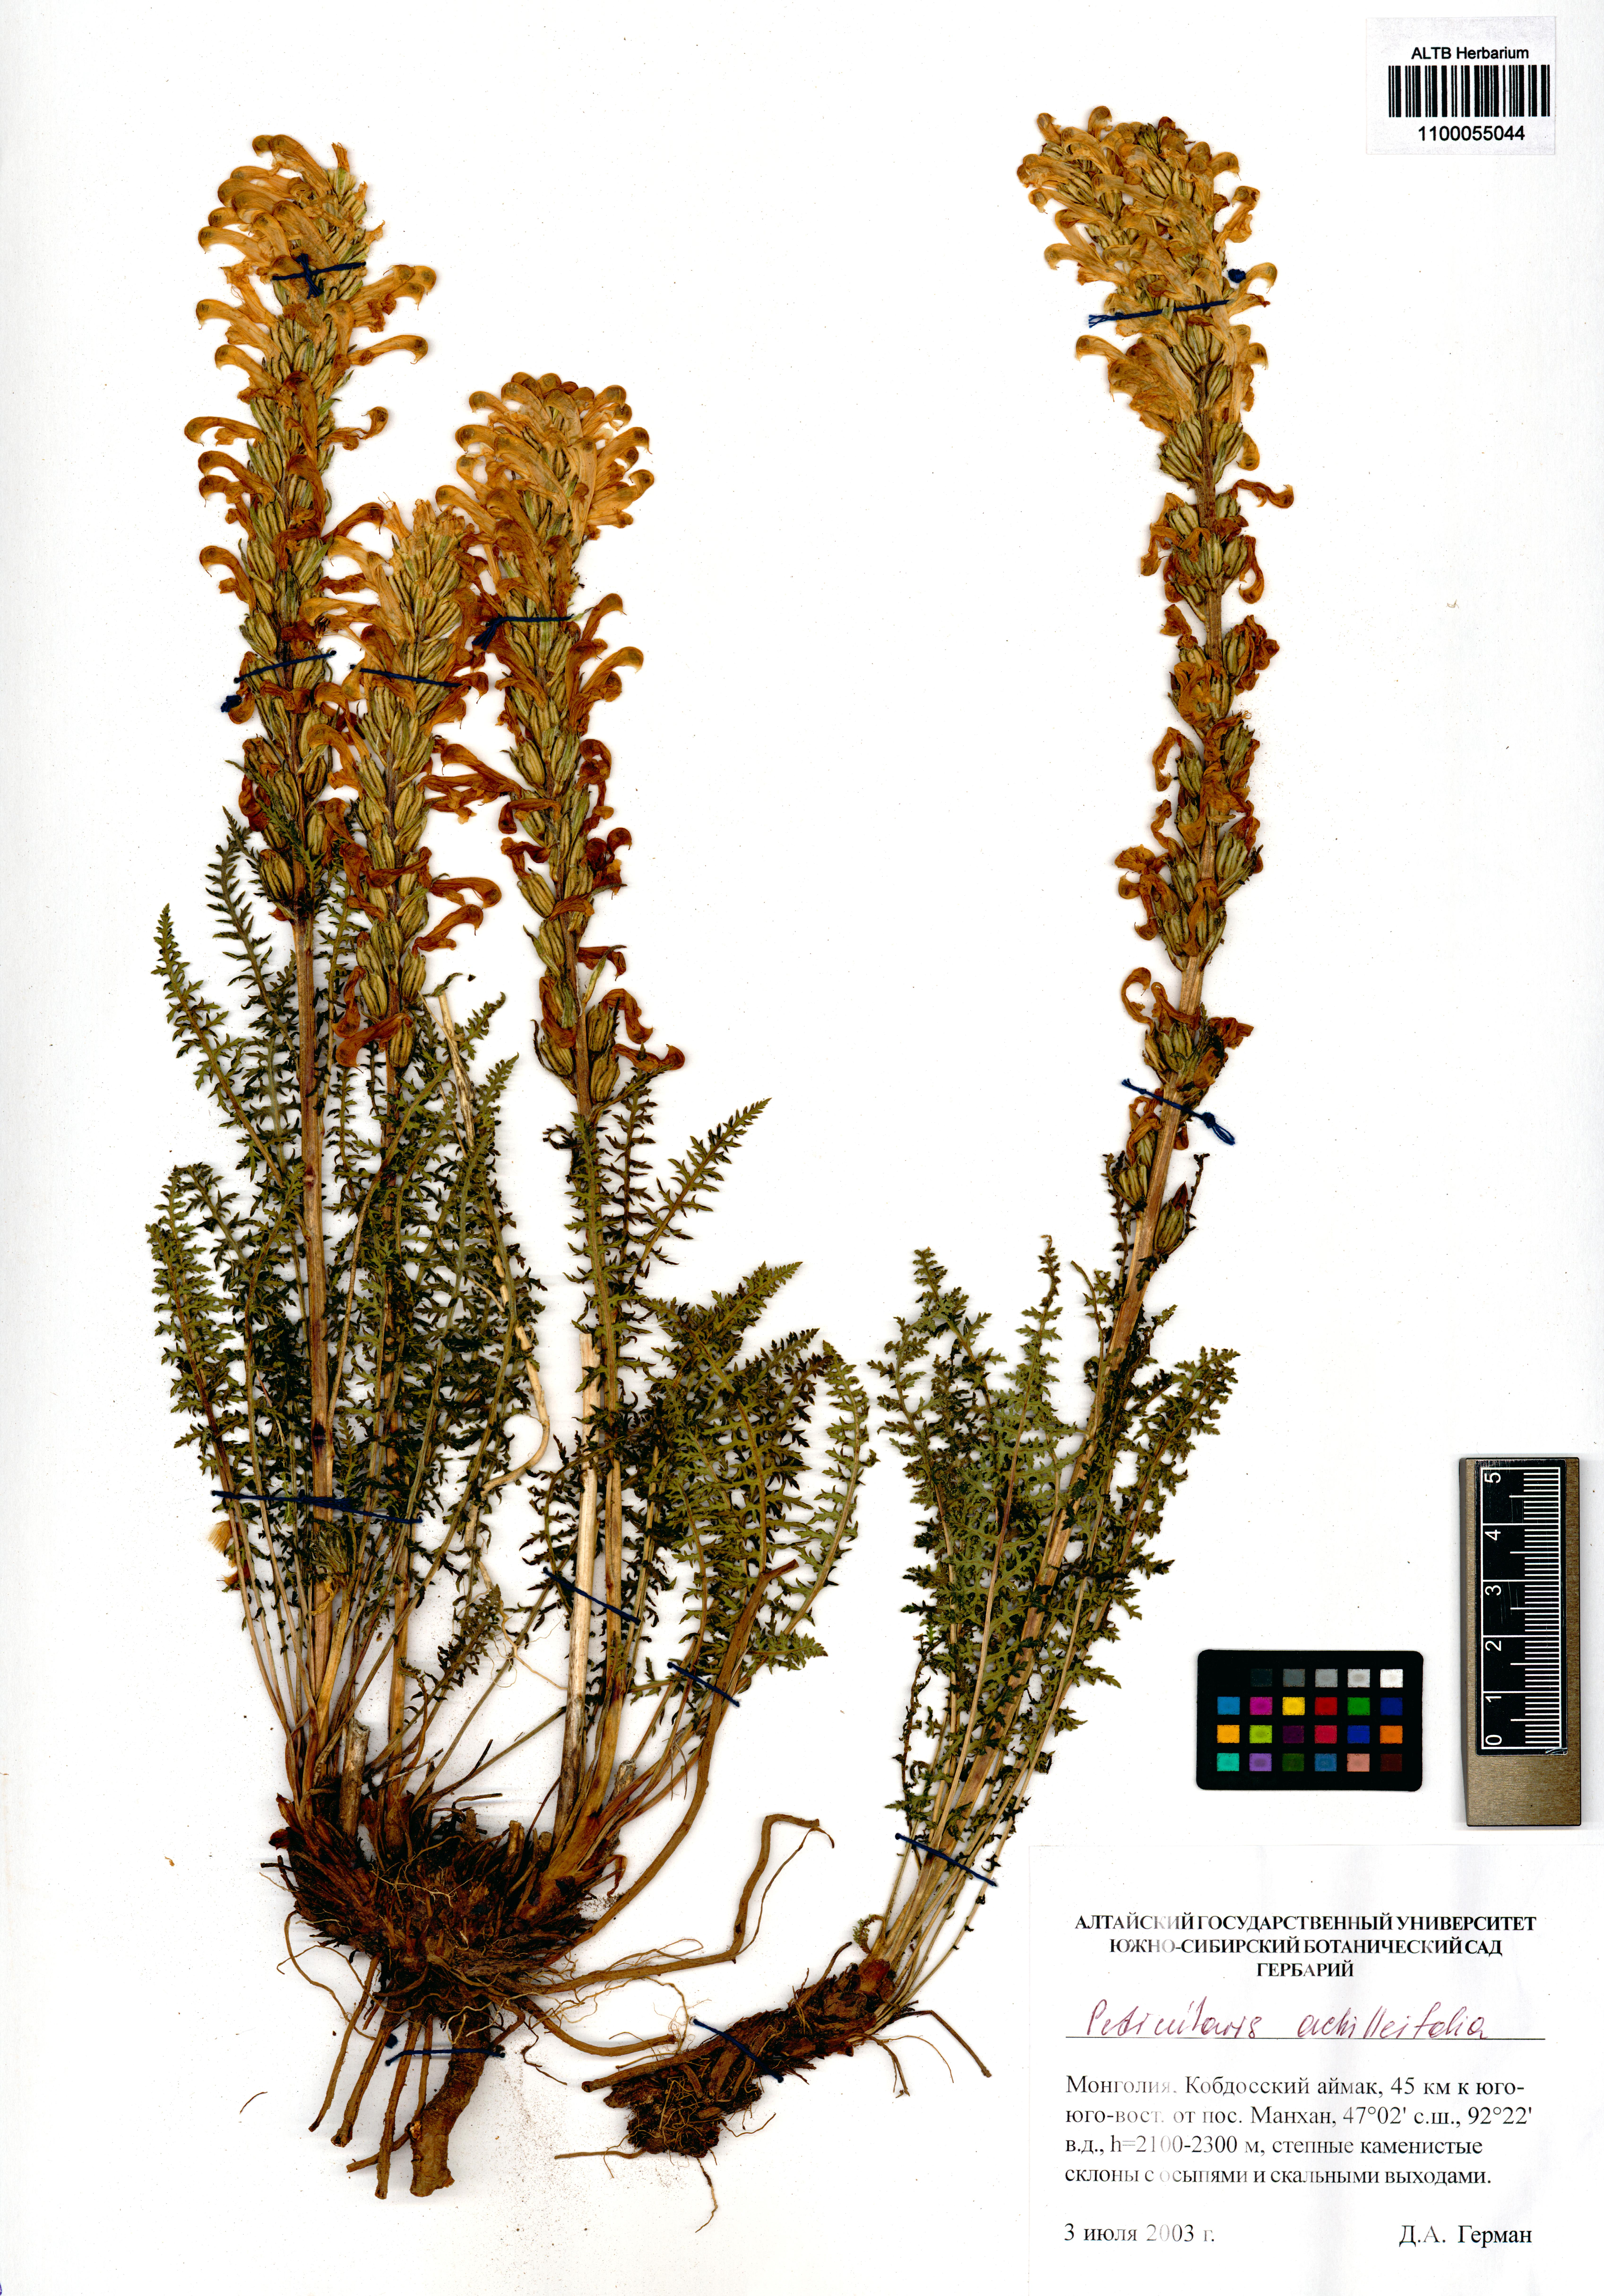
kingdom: Plantae
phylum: Tracheophyta
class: Magnoliopsida
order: Lamiales
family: Orobanchaceae
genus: Pedicularis
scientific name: Pedicularis achilleifolia
